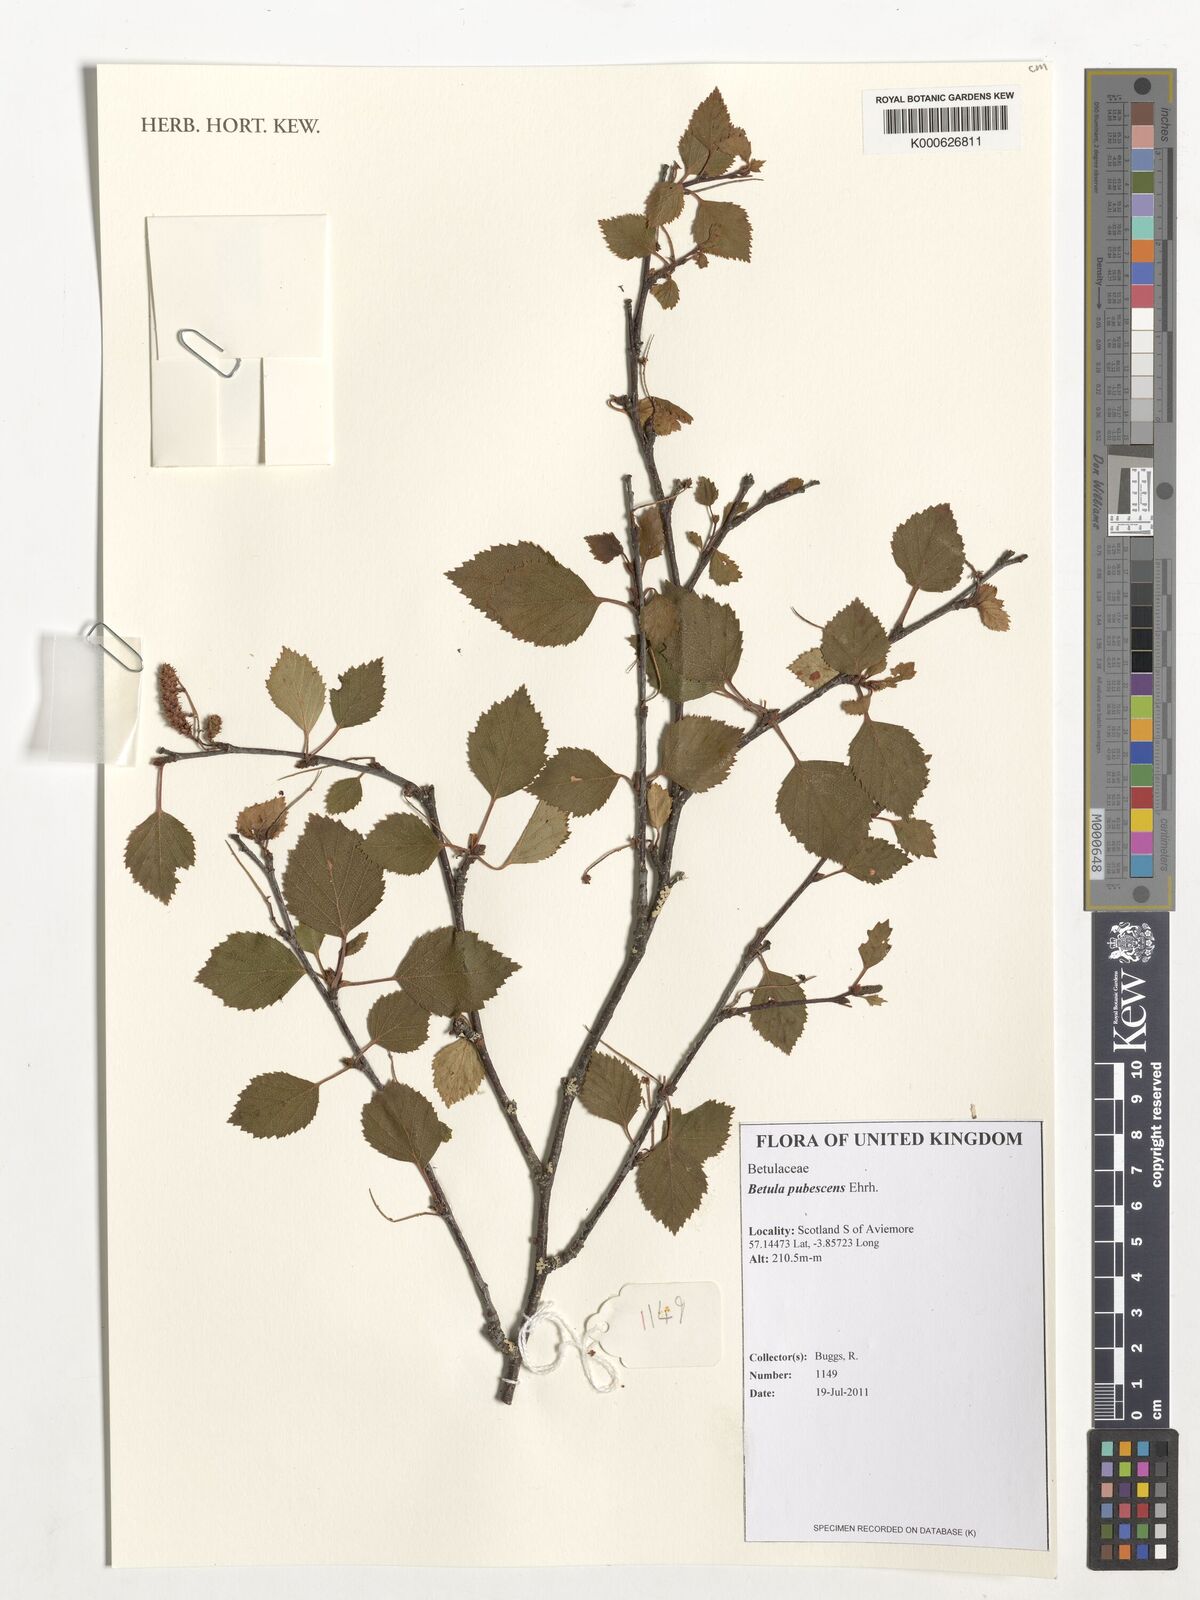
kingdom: Plantae
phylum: Tracheophyta
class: Magnoliopsida
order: Fagales
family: Betulaceae
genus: Betula
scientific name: Betula pubescens
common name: Downy birch
